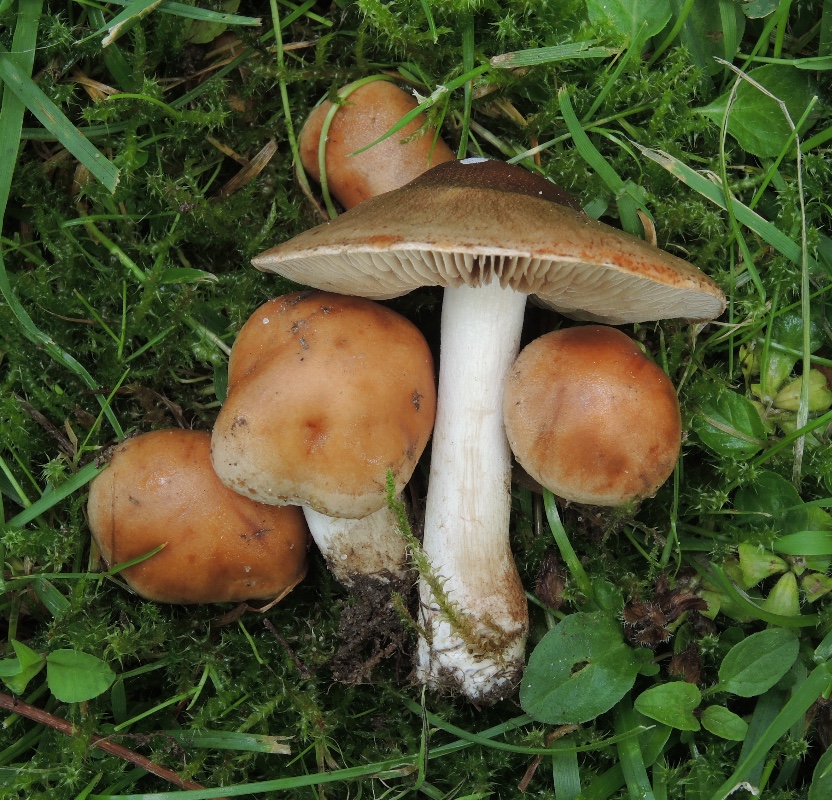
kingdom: Fungi
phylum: Basidiomycota
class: Agaricomycetes
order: Agaricales
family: Hymenogastraceae
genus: Hebeloma
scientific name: Hebeloma mesophaeum
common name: lerbrun tåreblad
